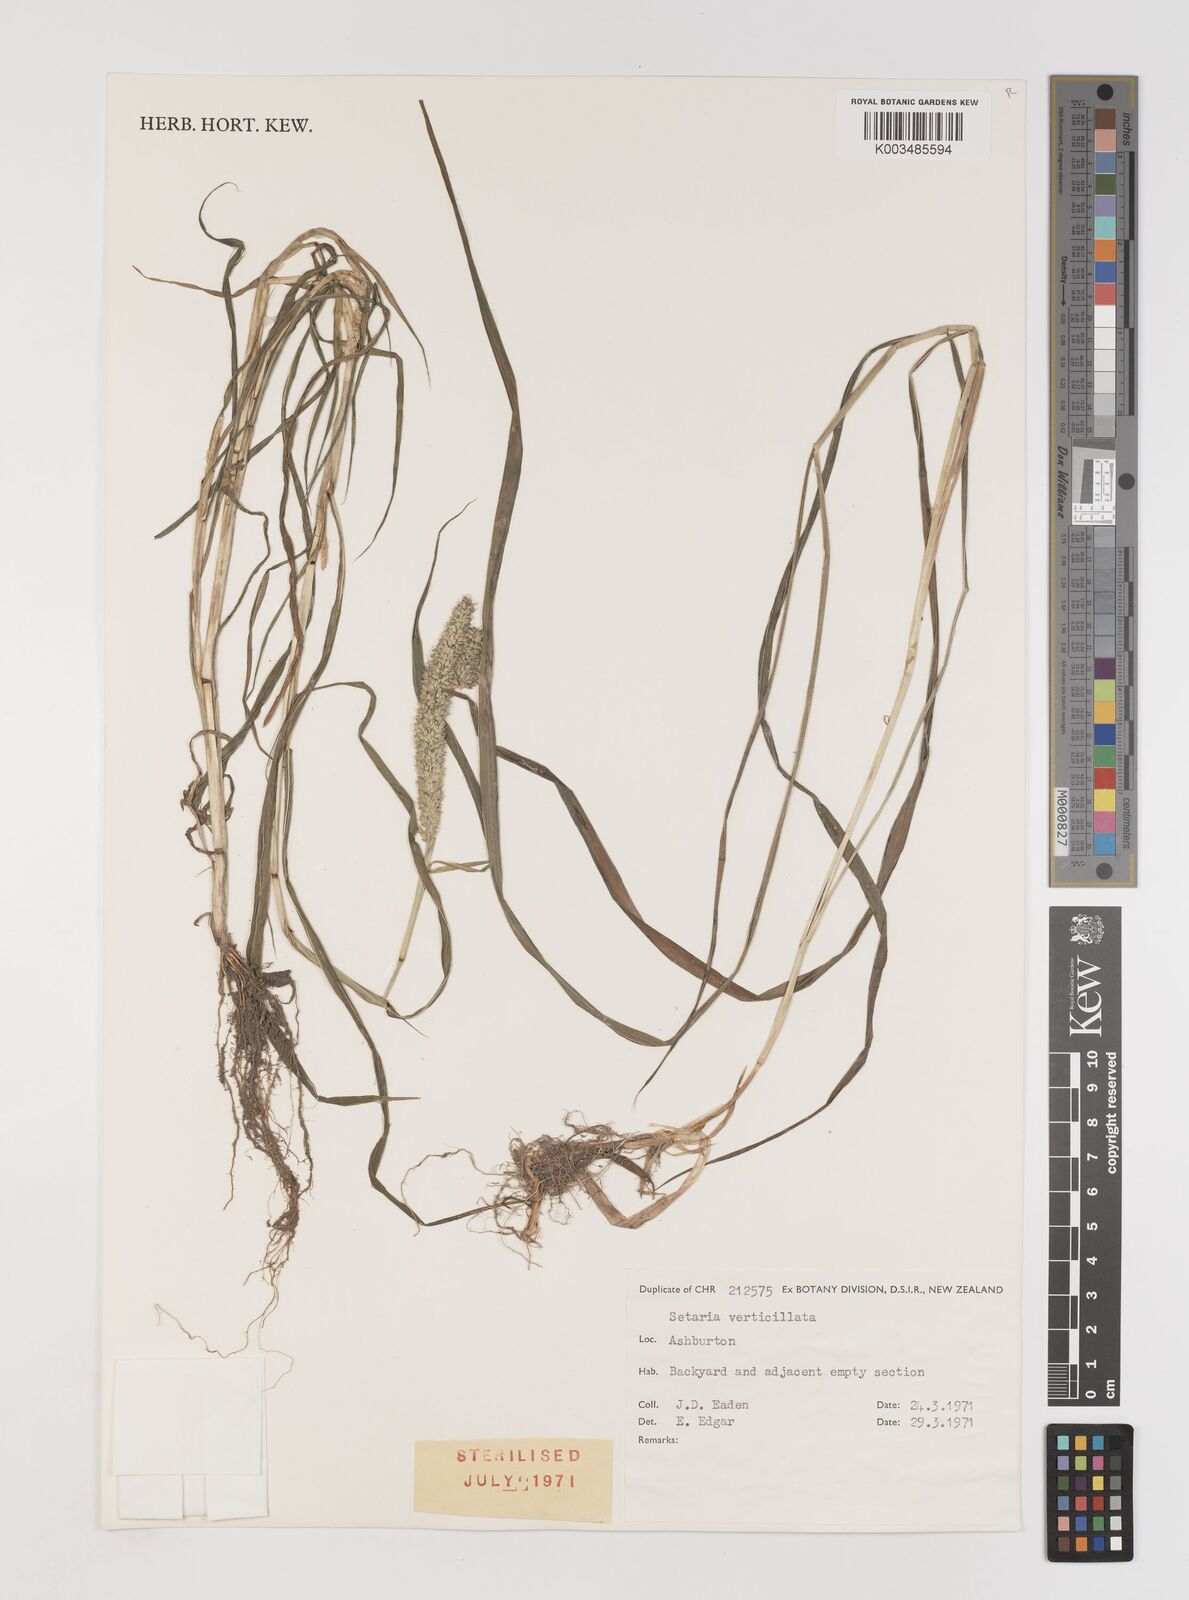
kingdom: Plantae
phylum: Tracheophyta
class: Liliopsida
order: Poales
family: Poaceae
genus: Setaria
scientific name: Setaria verticillata
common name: Hooked bristlegrass
